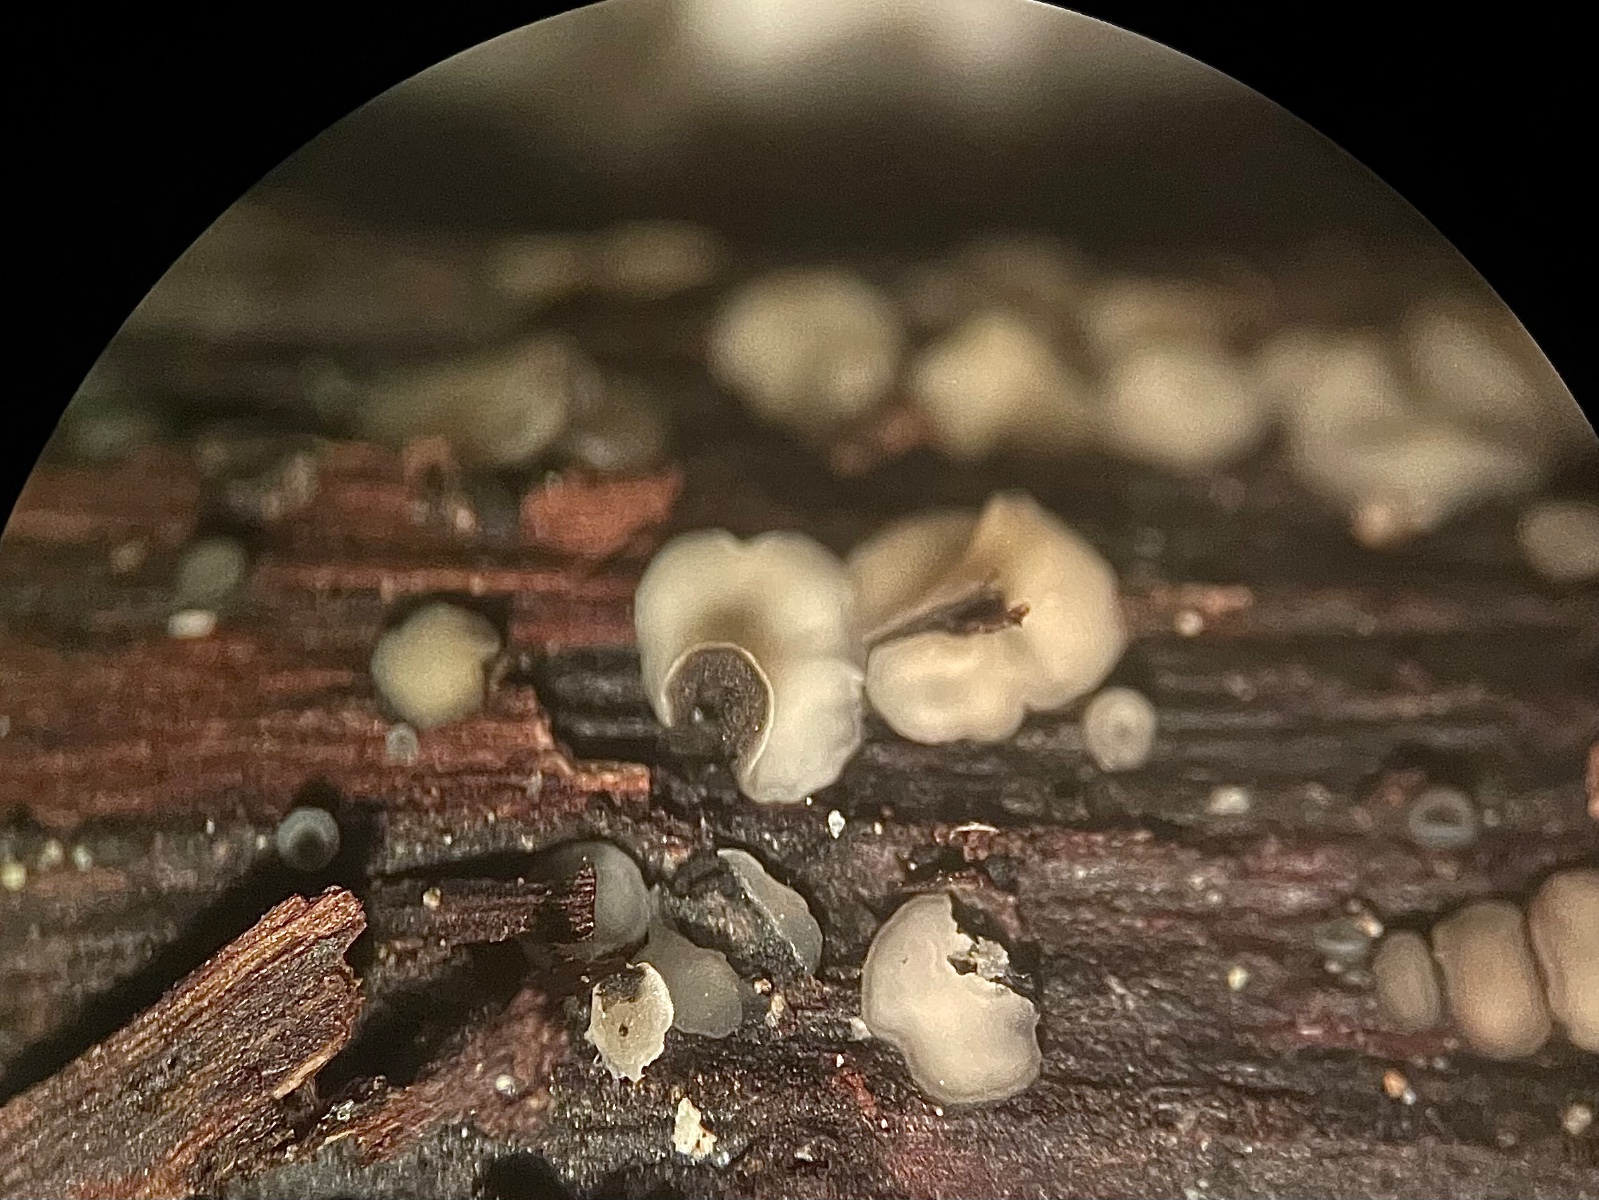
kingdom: Fungi
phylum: Ascomycota
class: Leotiomycetes
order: Helotiales
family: Mollisiaceae
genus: Mollisia
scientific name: Mollisia
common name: gråskive
